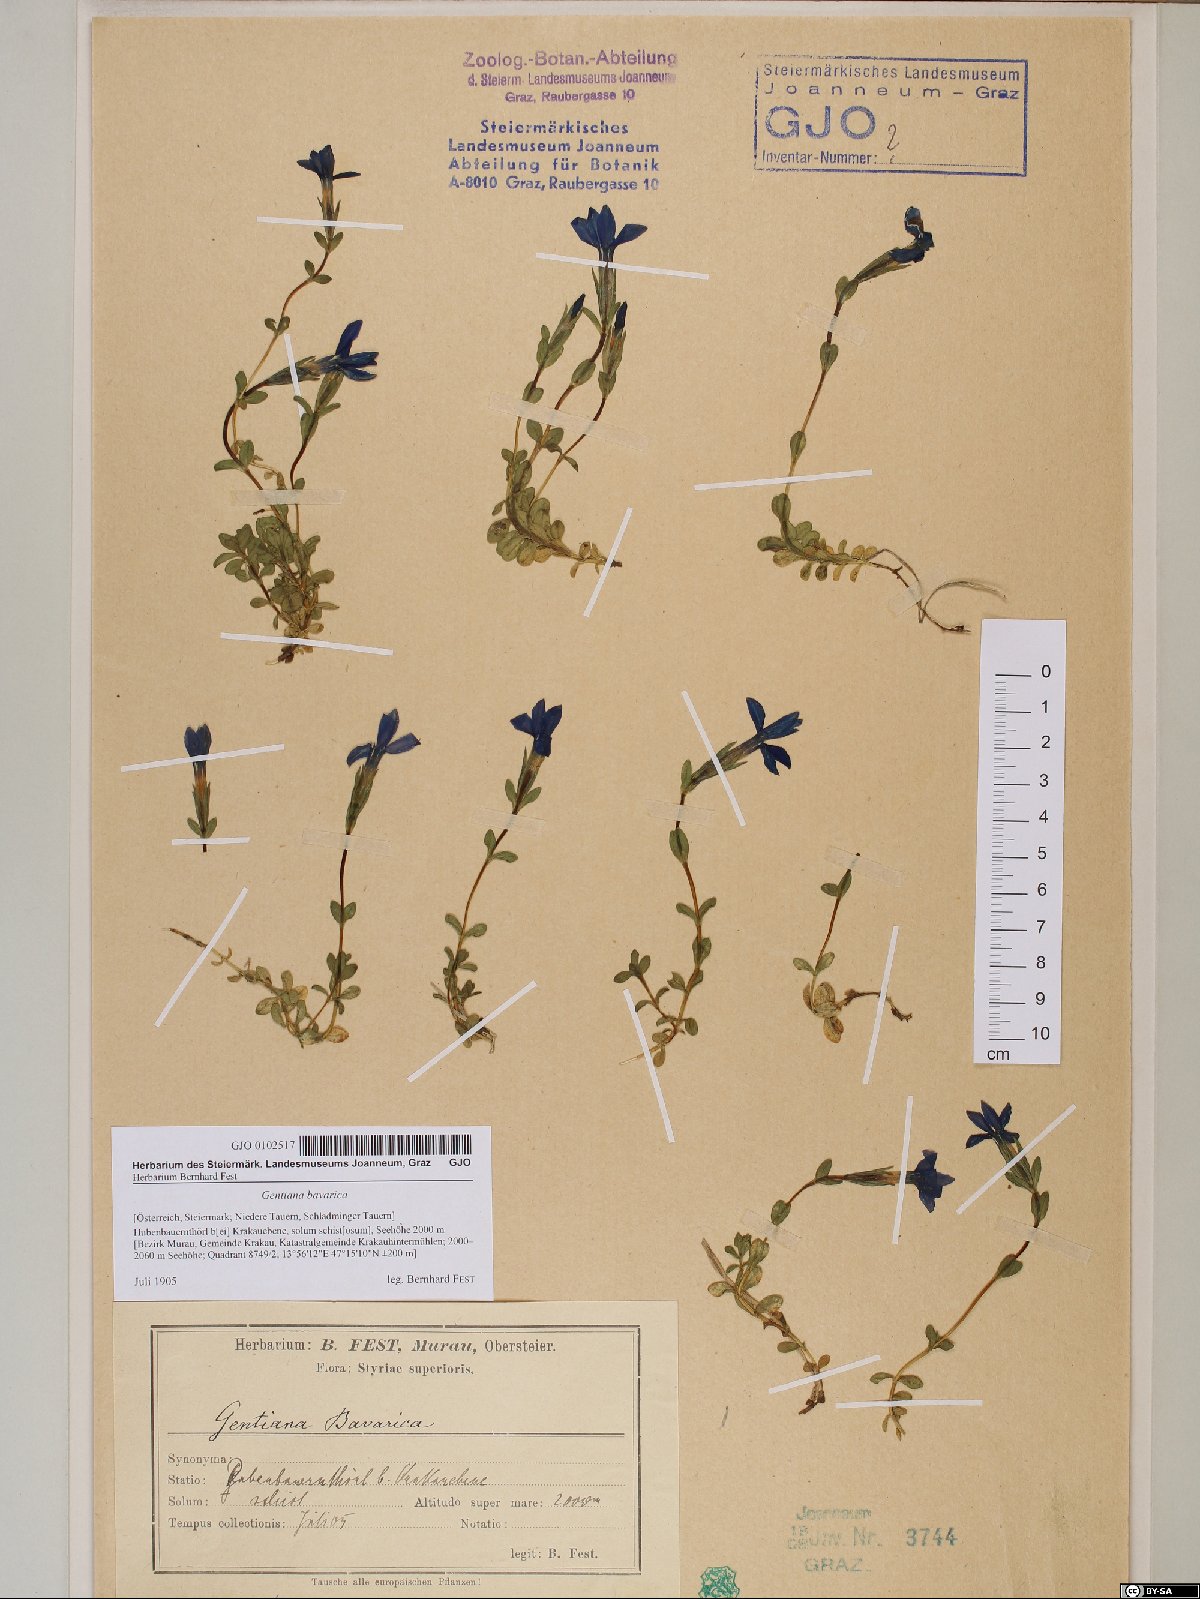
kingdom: Plantae
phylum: Tracheophyta
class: Magnoliopsida
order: Gentianales
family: Gentianaceae
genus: Gentiana
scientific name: Gentiana bavarica
